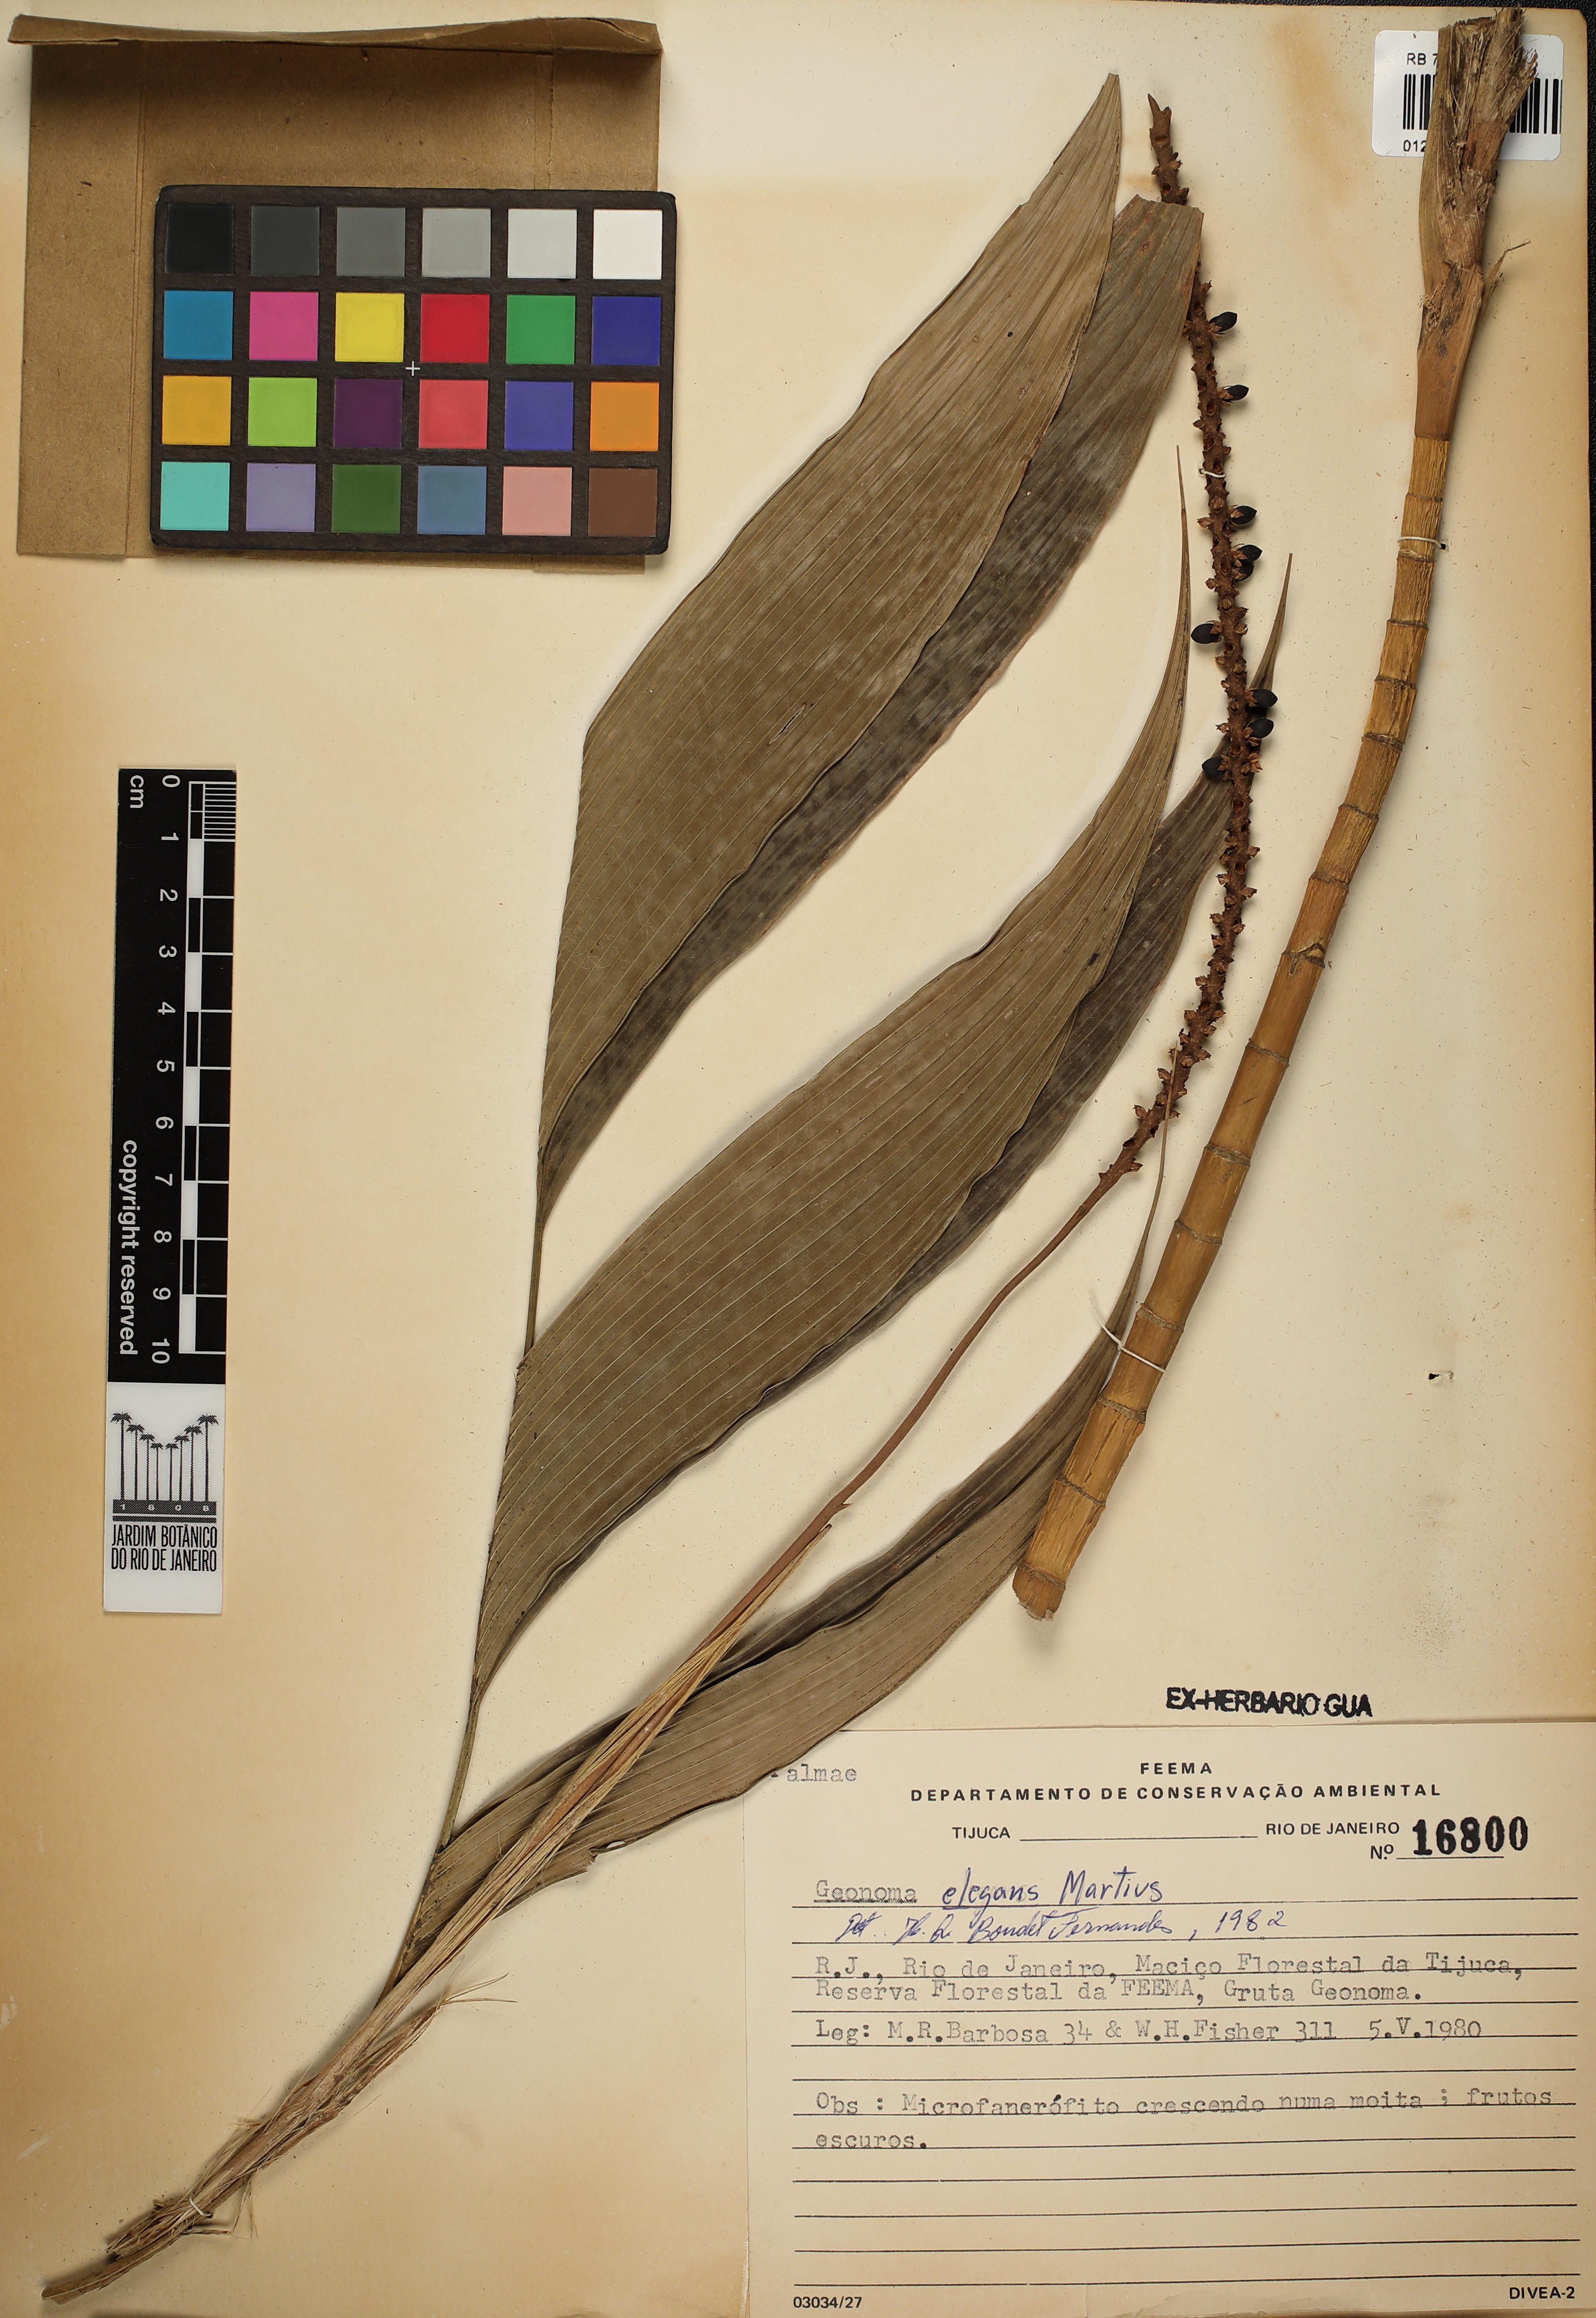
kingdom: Plantae
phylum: Tracheophyta
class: Liliopsida
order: Arecales
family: Arecaceae
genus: Geonoma
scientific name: Geonoma elegans
